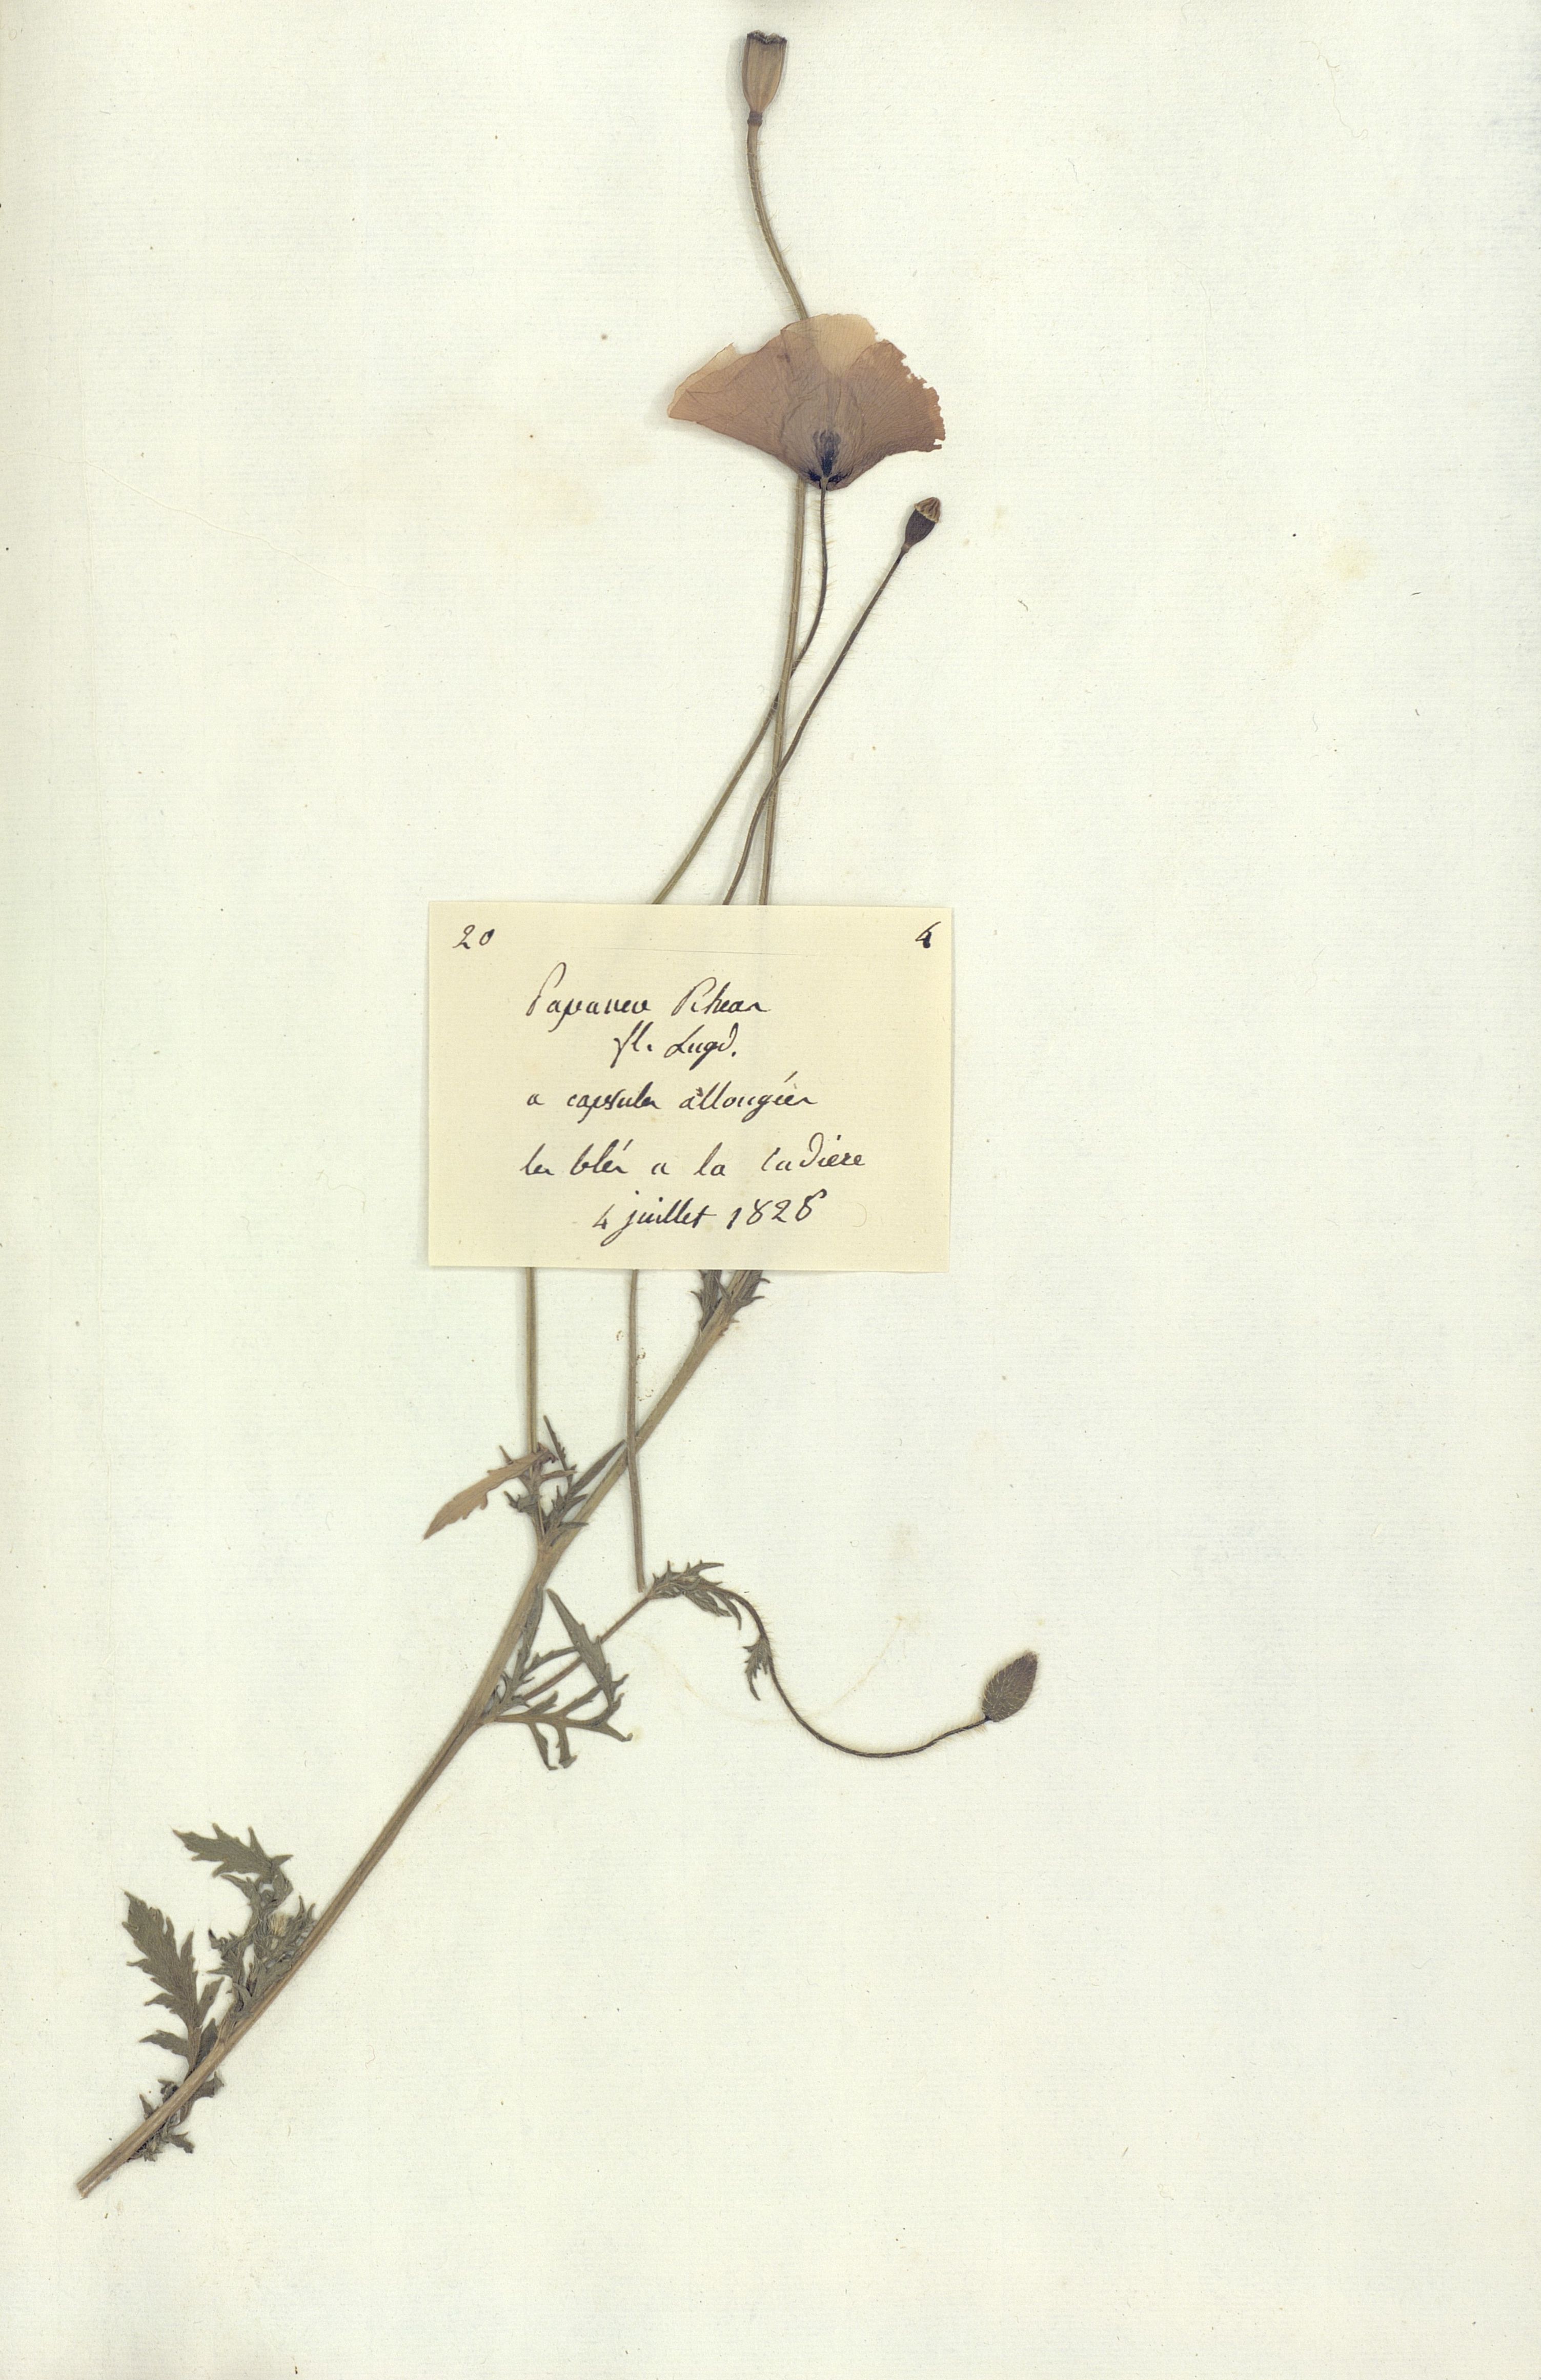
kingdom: Plantae
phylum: Tracheophyta
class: Magnoliopsida
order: Ranunculales
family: Papaveraceae
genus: Papaver
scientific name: Papaver
